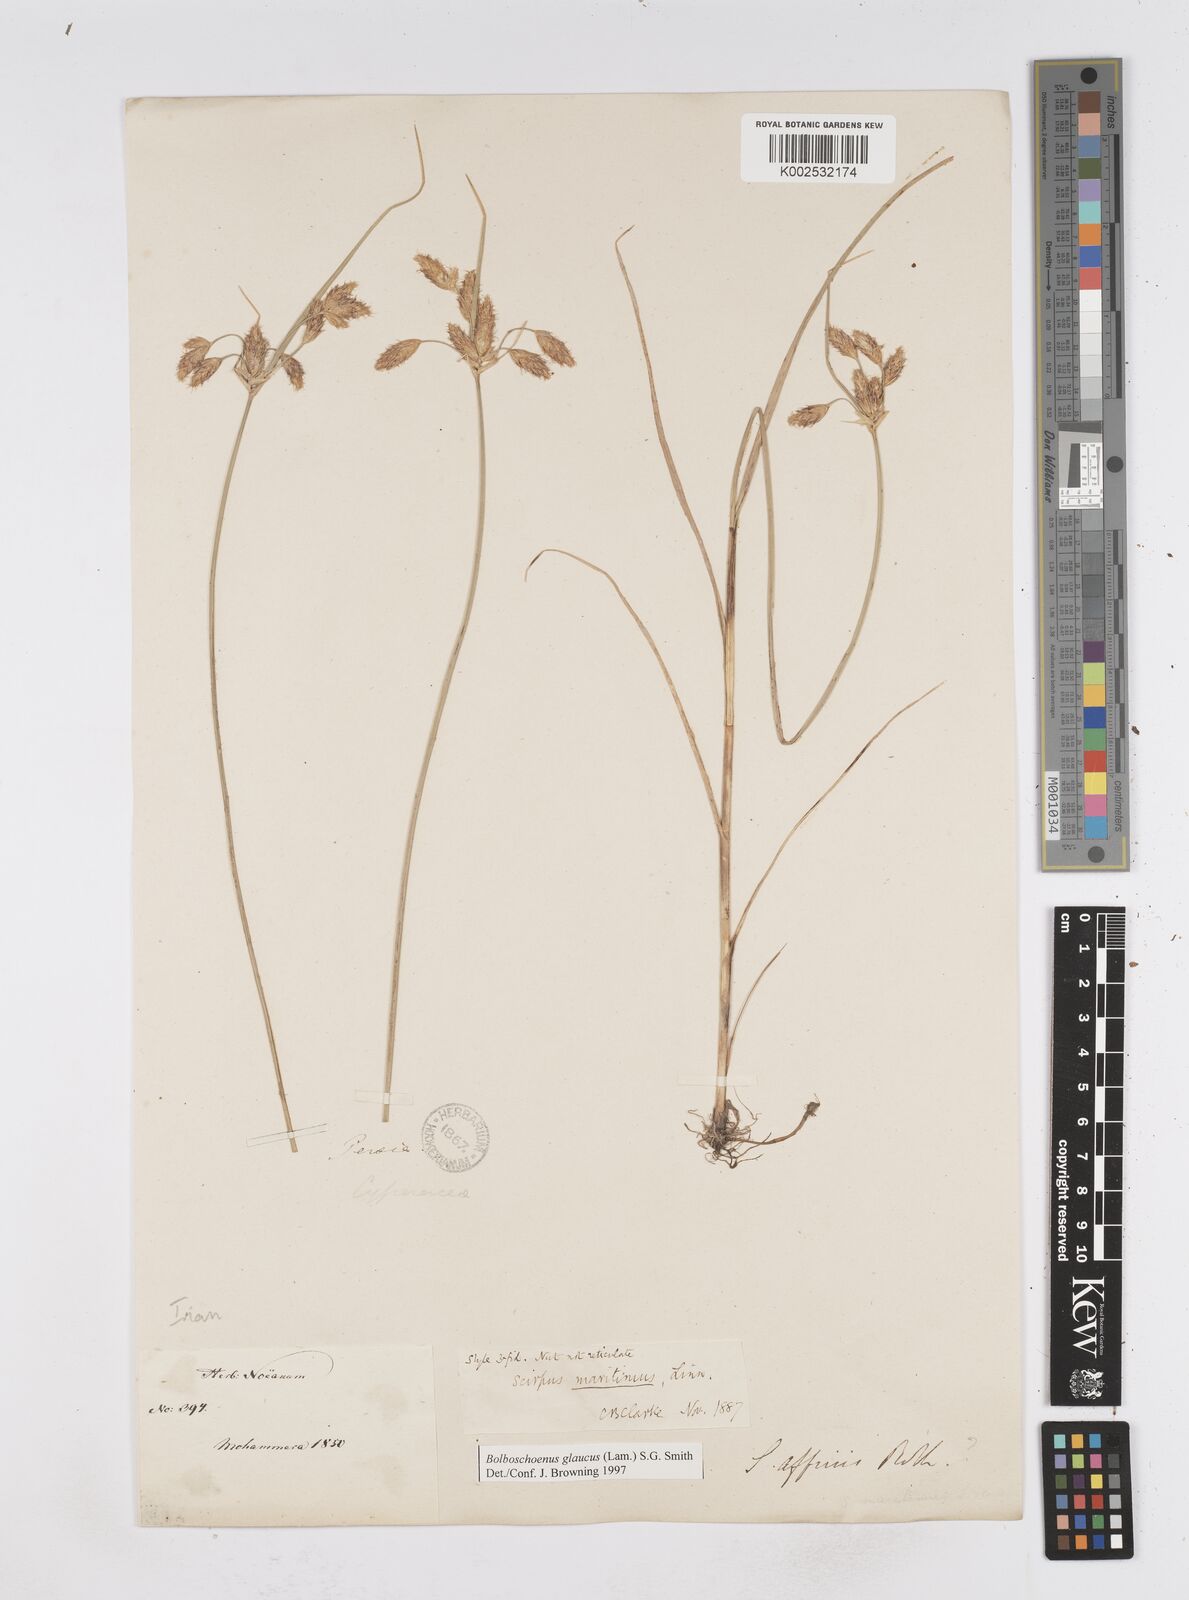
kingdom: Plantae
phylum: Tracheophyta
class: Liliopsida
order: Poales
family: Cyperaceae
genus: Bolboschoenus
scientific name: Bolboschoenus maritimus
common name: Sea club-rush
